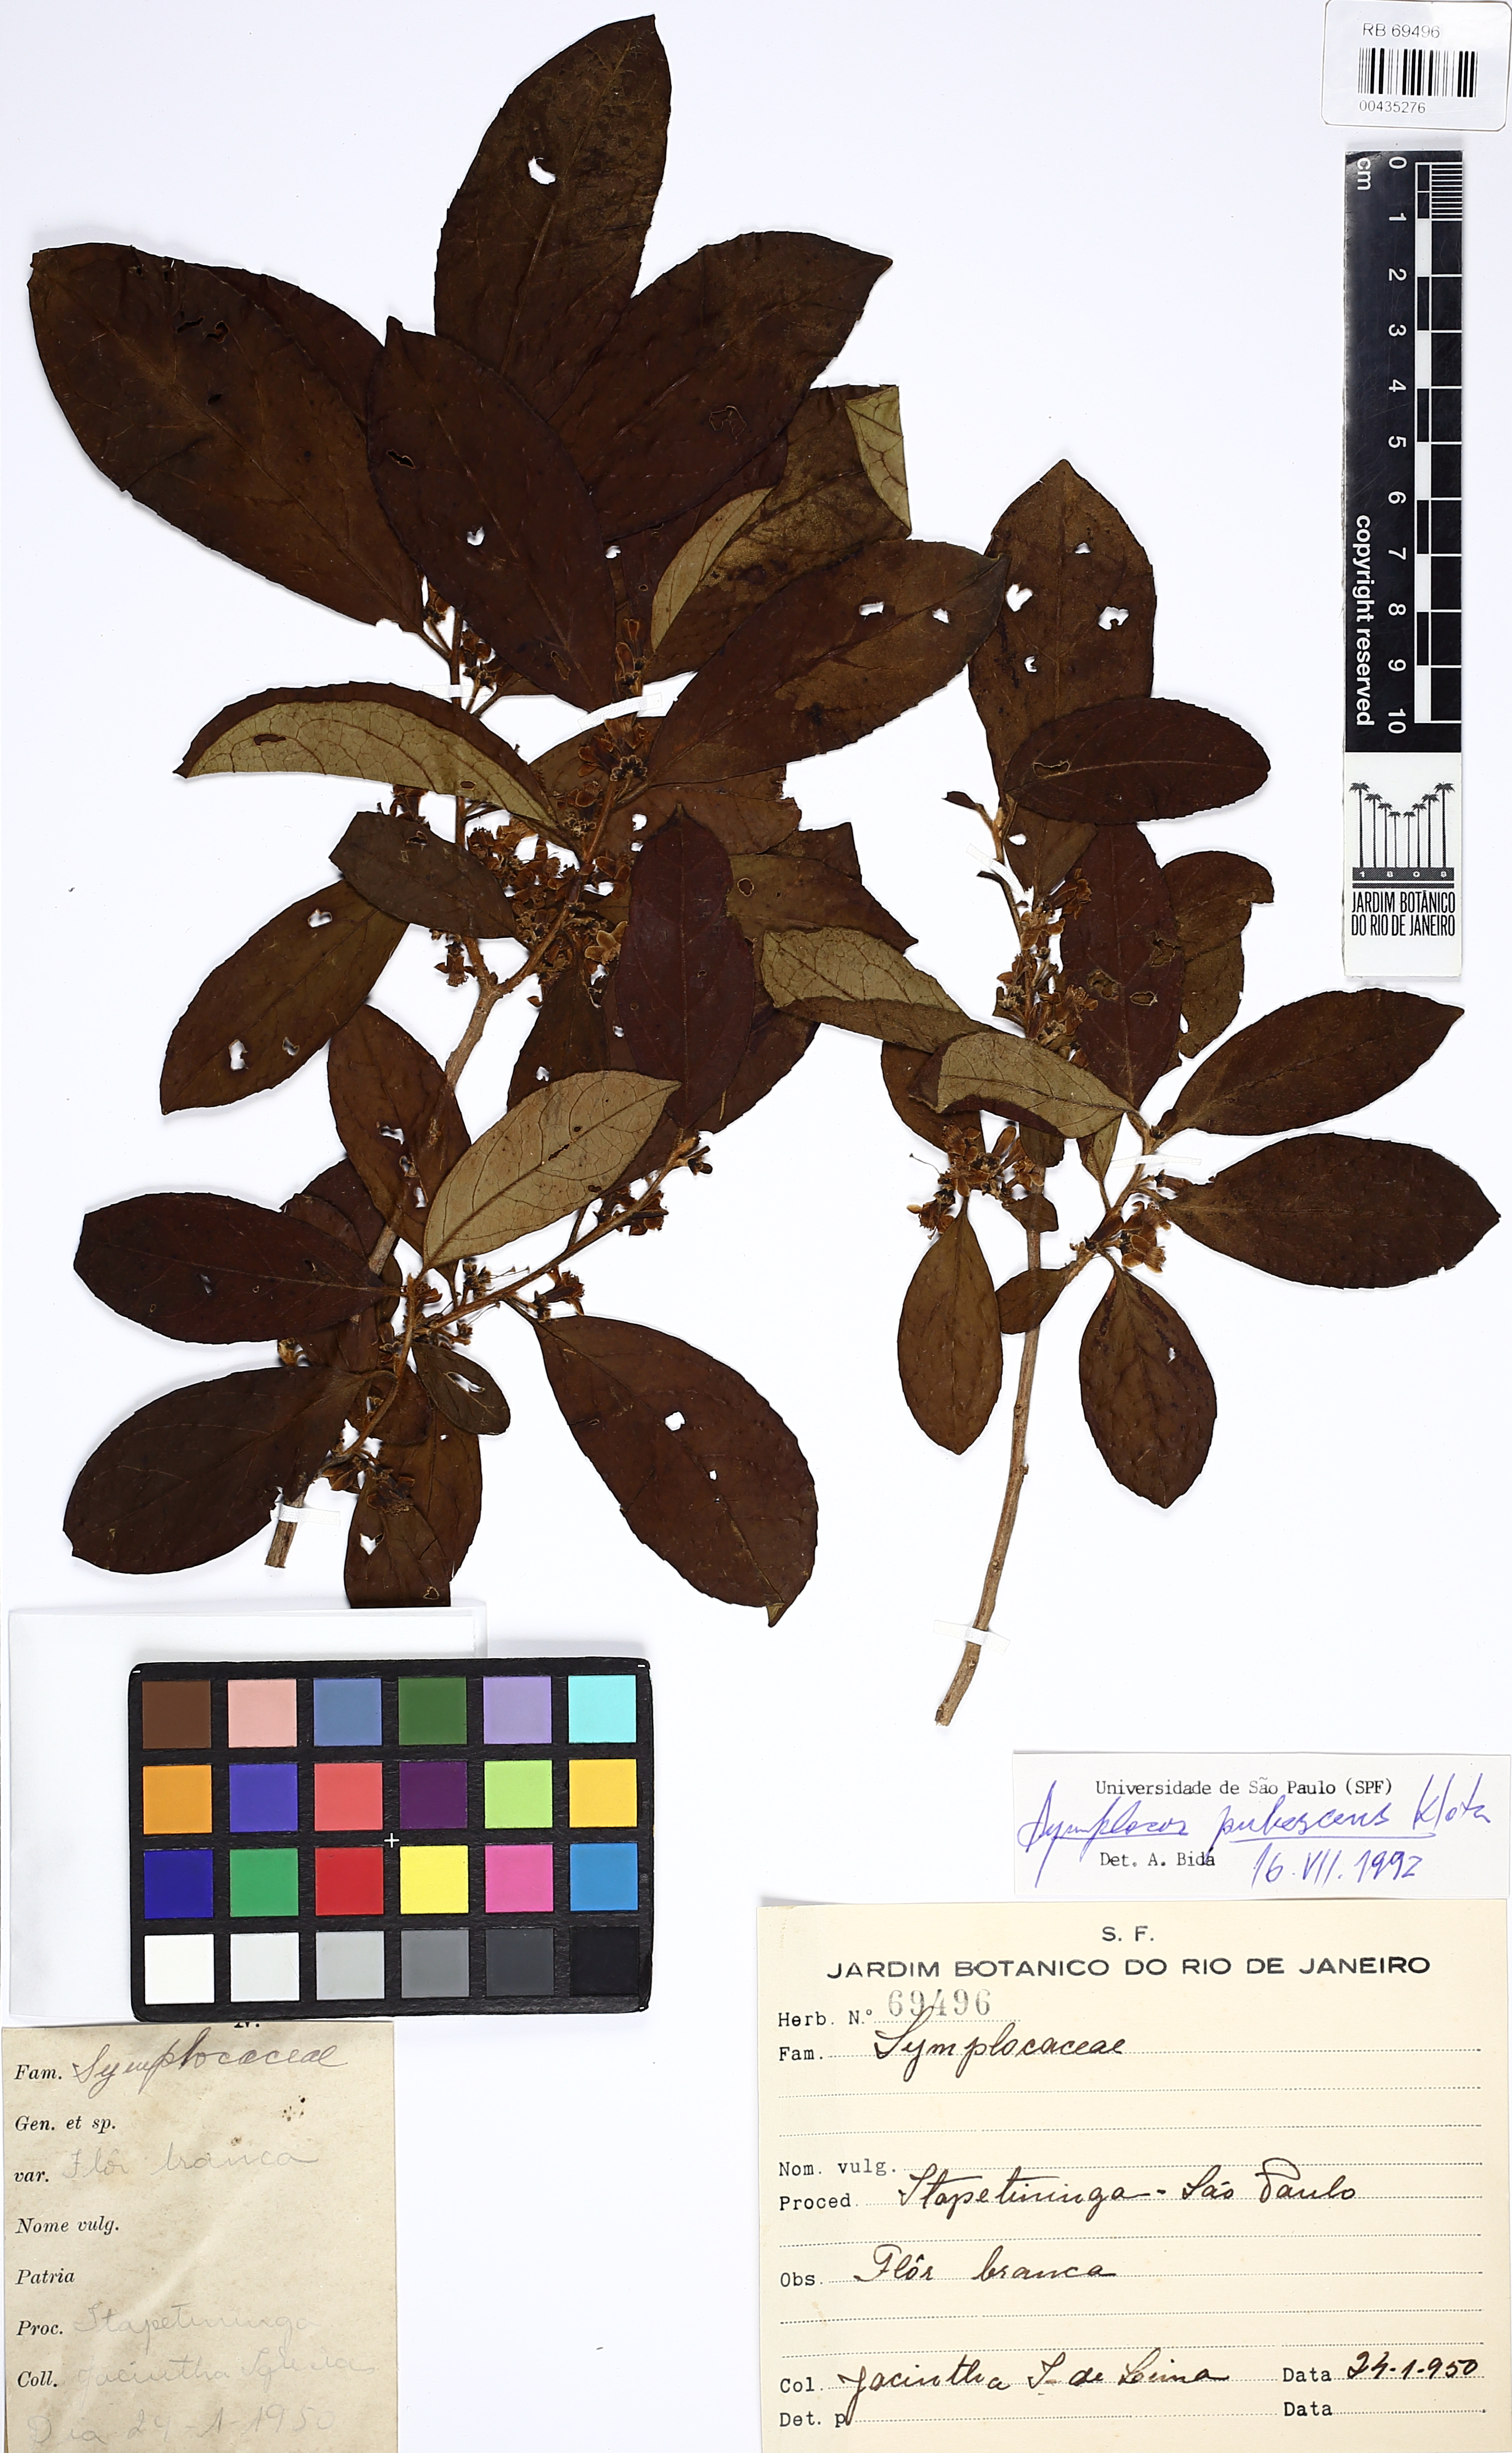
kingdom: Plantae
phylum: Tracheophyta
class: Magnoliopsida
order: Ericales
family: Symplocaceae
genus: Symplocos
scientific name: Symplocos pubescens
